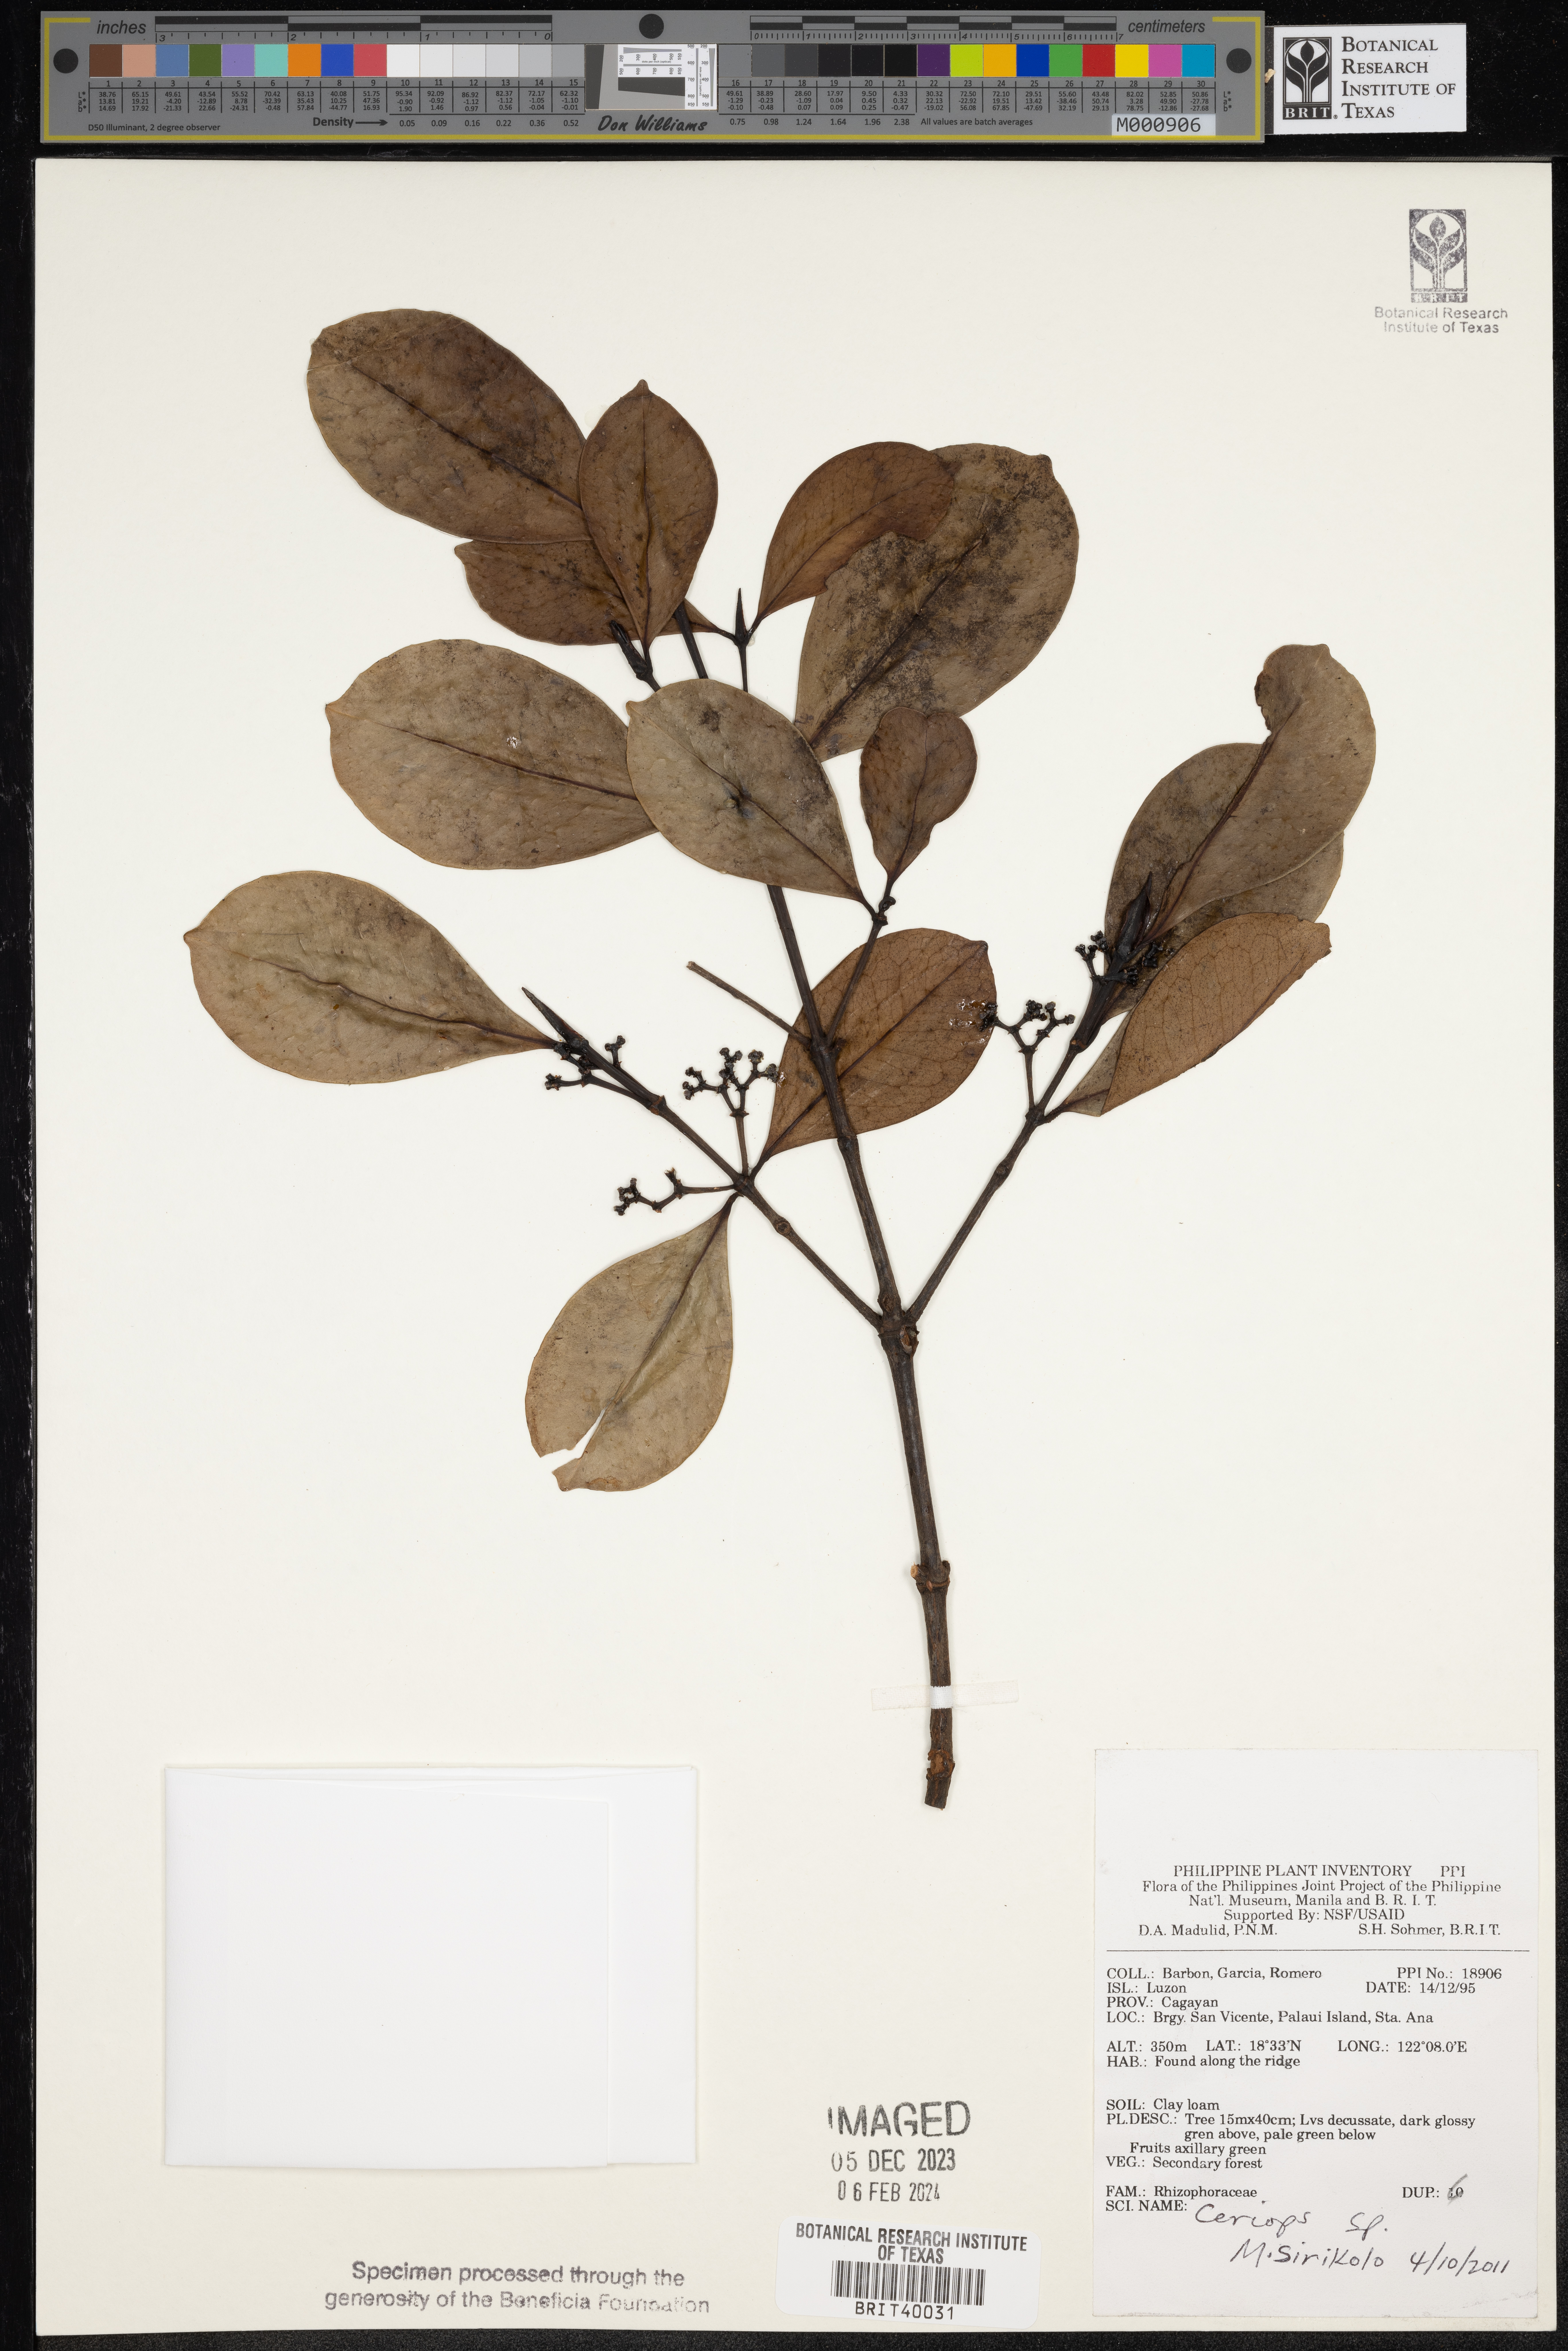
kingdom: Plantae
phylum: Tracheophyta
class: Magnoliopsida
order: Malpighiales
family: Rhizophoraceae
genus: Ceriops
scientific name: Ceriops
